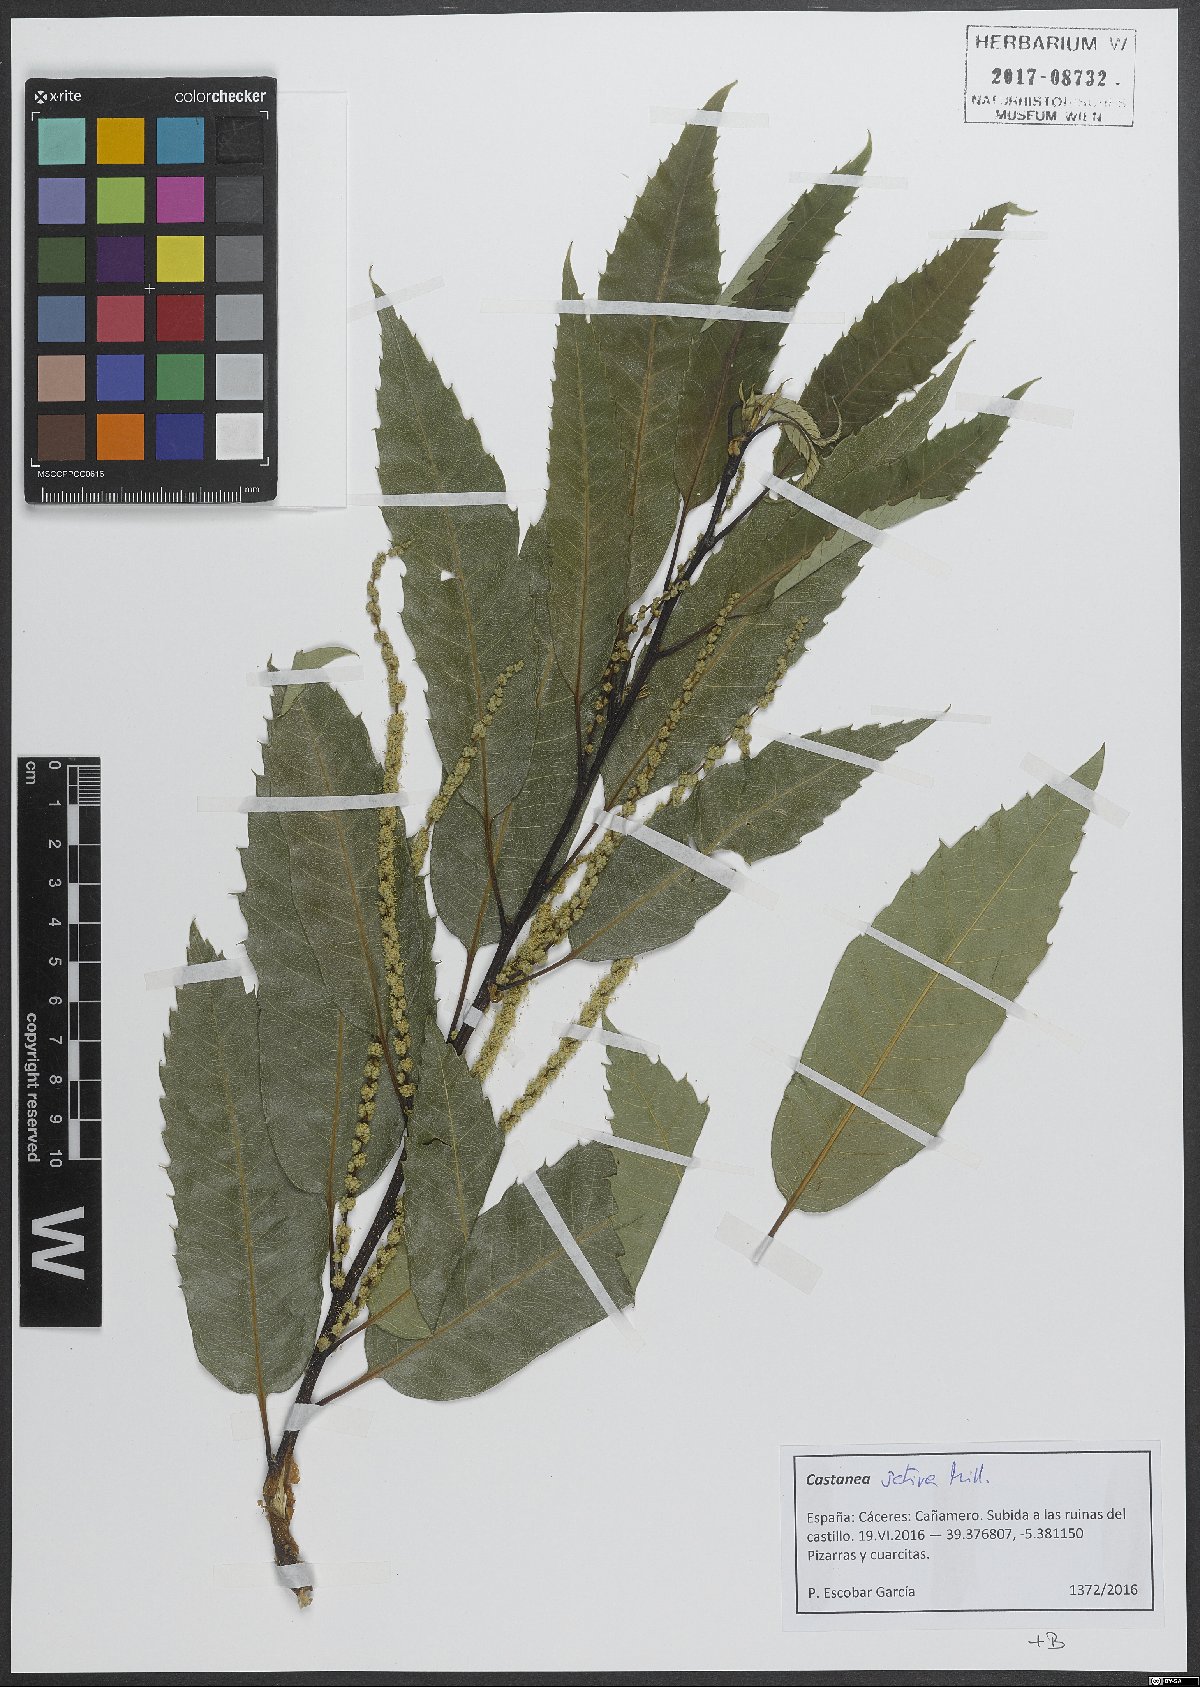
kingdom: Plantae
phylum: Tracheophyta
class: Magnoliopsida
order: Fagales
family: Fagaceae
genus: Castanea
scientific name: Castanea sativa
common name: Sweet chestnut
